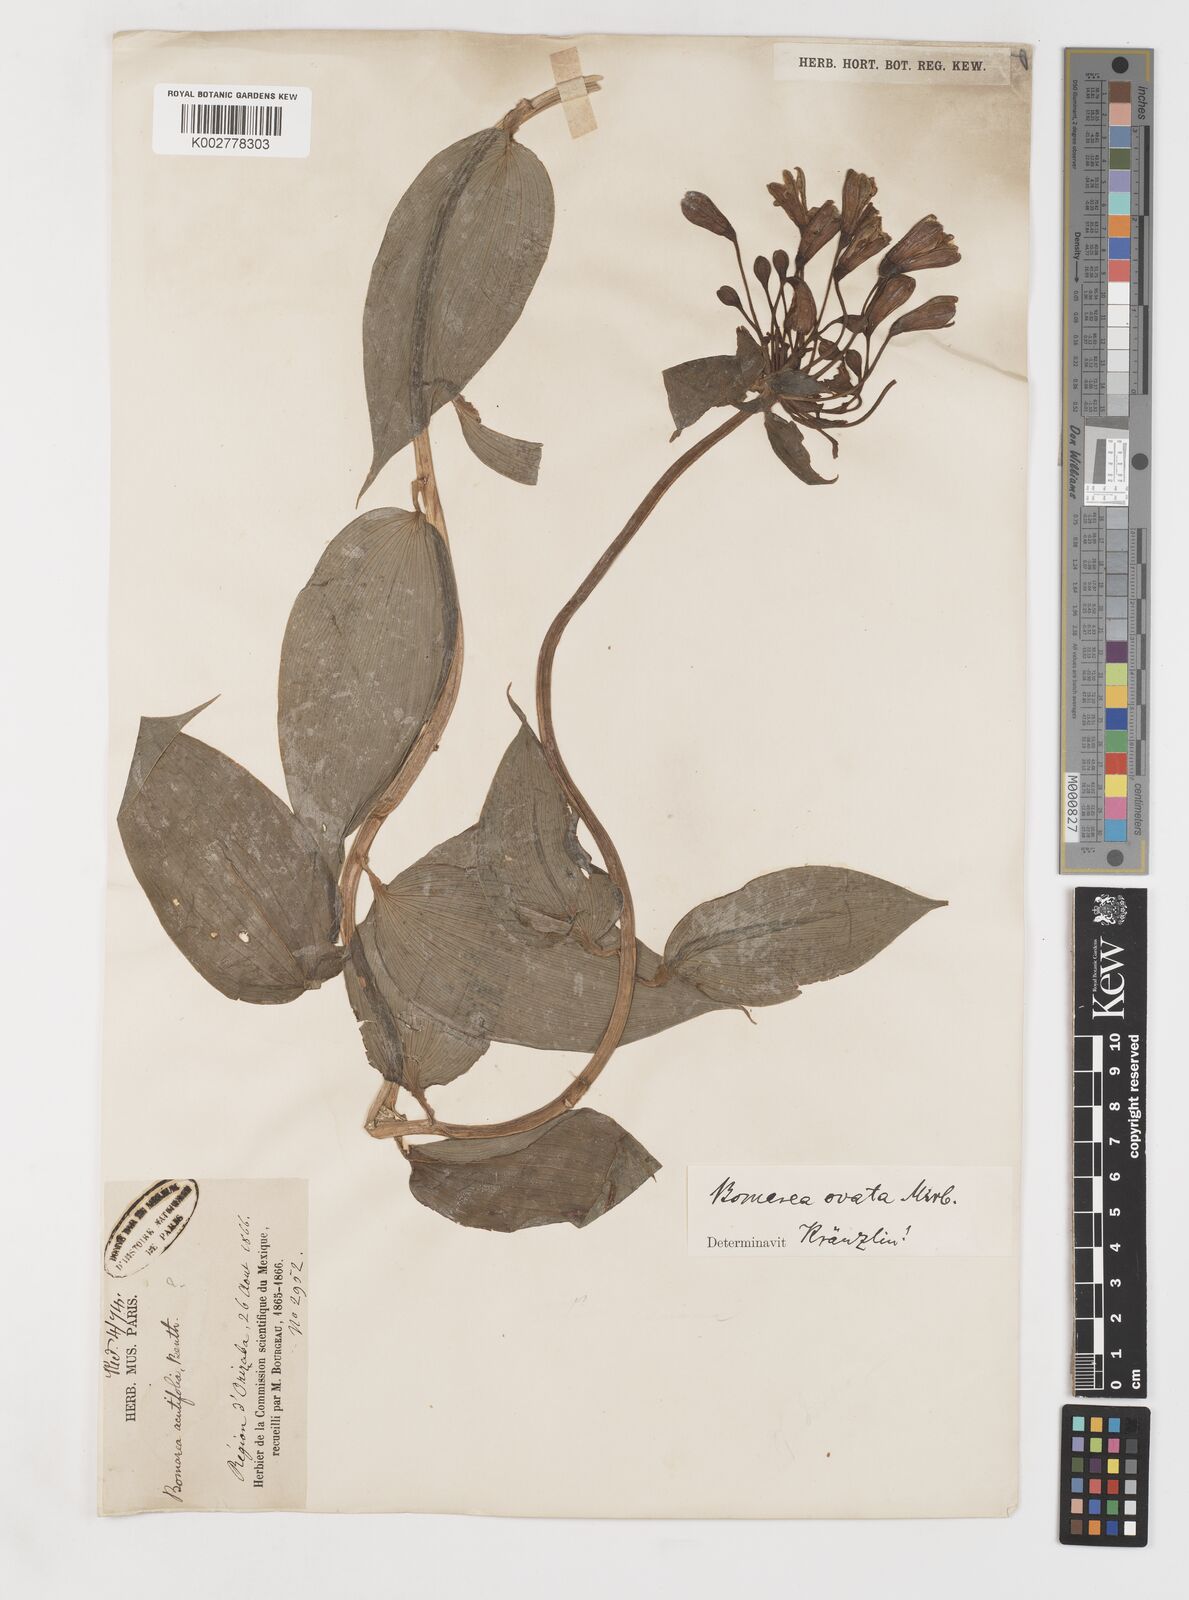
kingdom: Plantae
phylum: Tracheophyta
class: Liliopsida
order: Liliales
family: Alstroemeriaceae
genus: Bomarea
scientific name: Bomarea edulis
